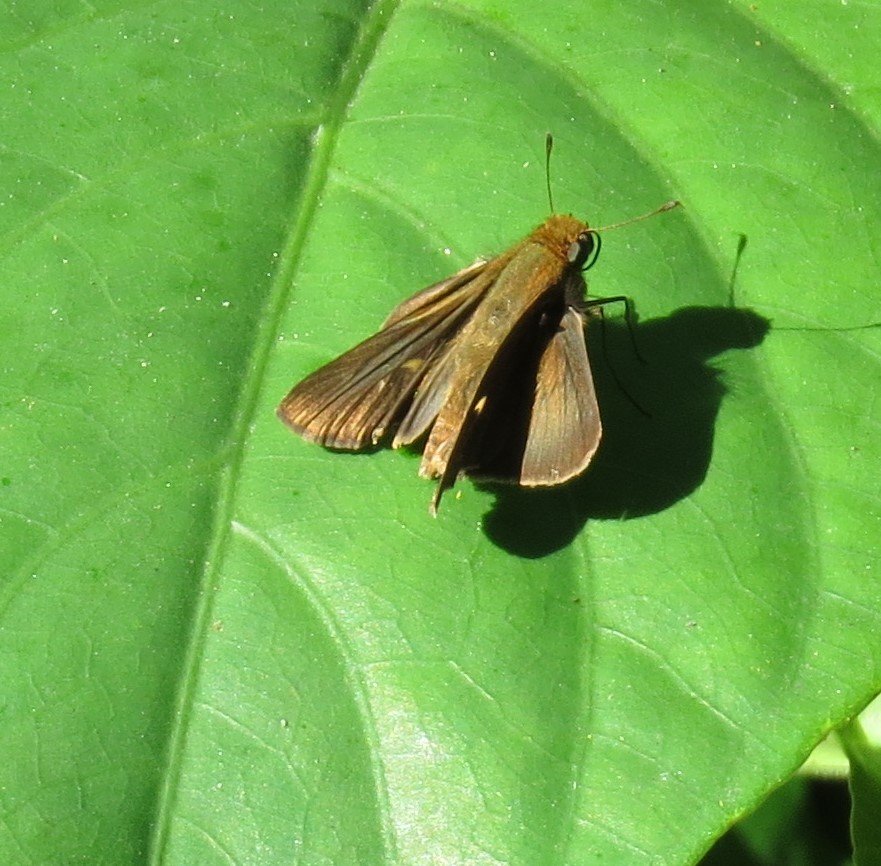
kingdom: Animalia
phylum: Arthropoda
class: Insecta
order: Lepidoptera
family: Hesperiidae
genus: Panoquina
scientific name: Panoquina ocola
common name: Ocola Skipper
